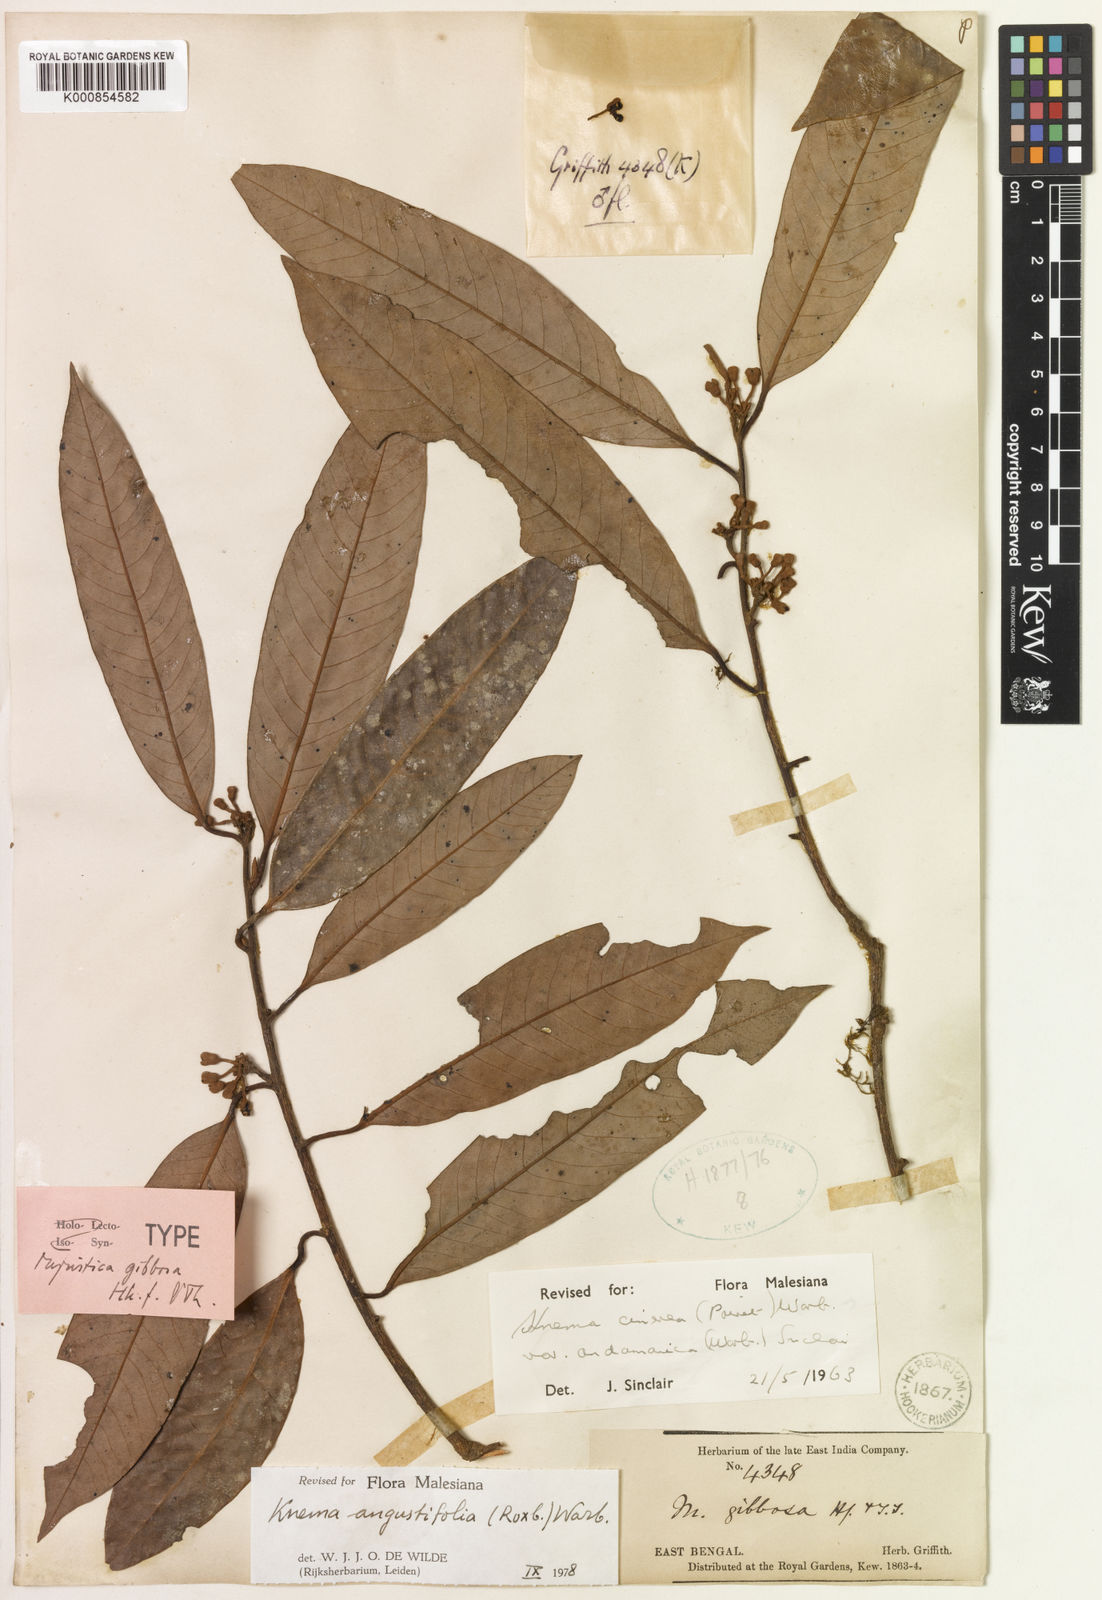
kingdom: Plantae
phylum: Tracheophyta
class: Magnoliopsida
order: Magnoliales
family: Myristicaceae
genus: Knema
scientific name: Knema angustifolia
